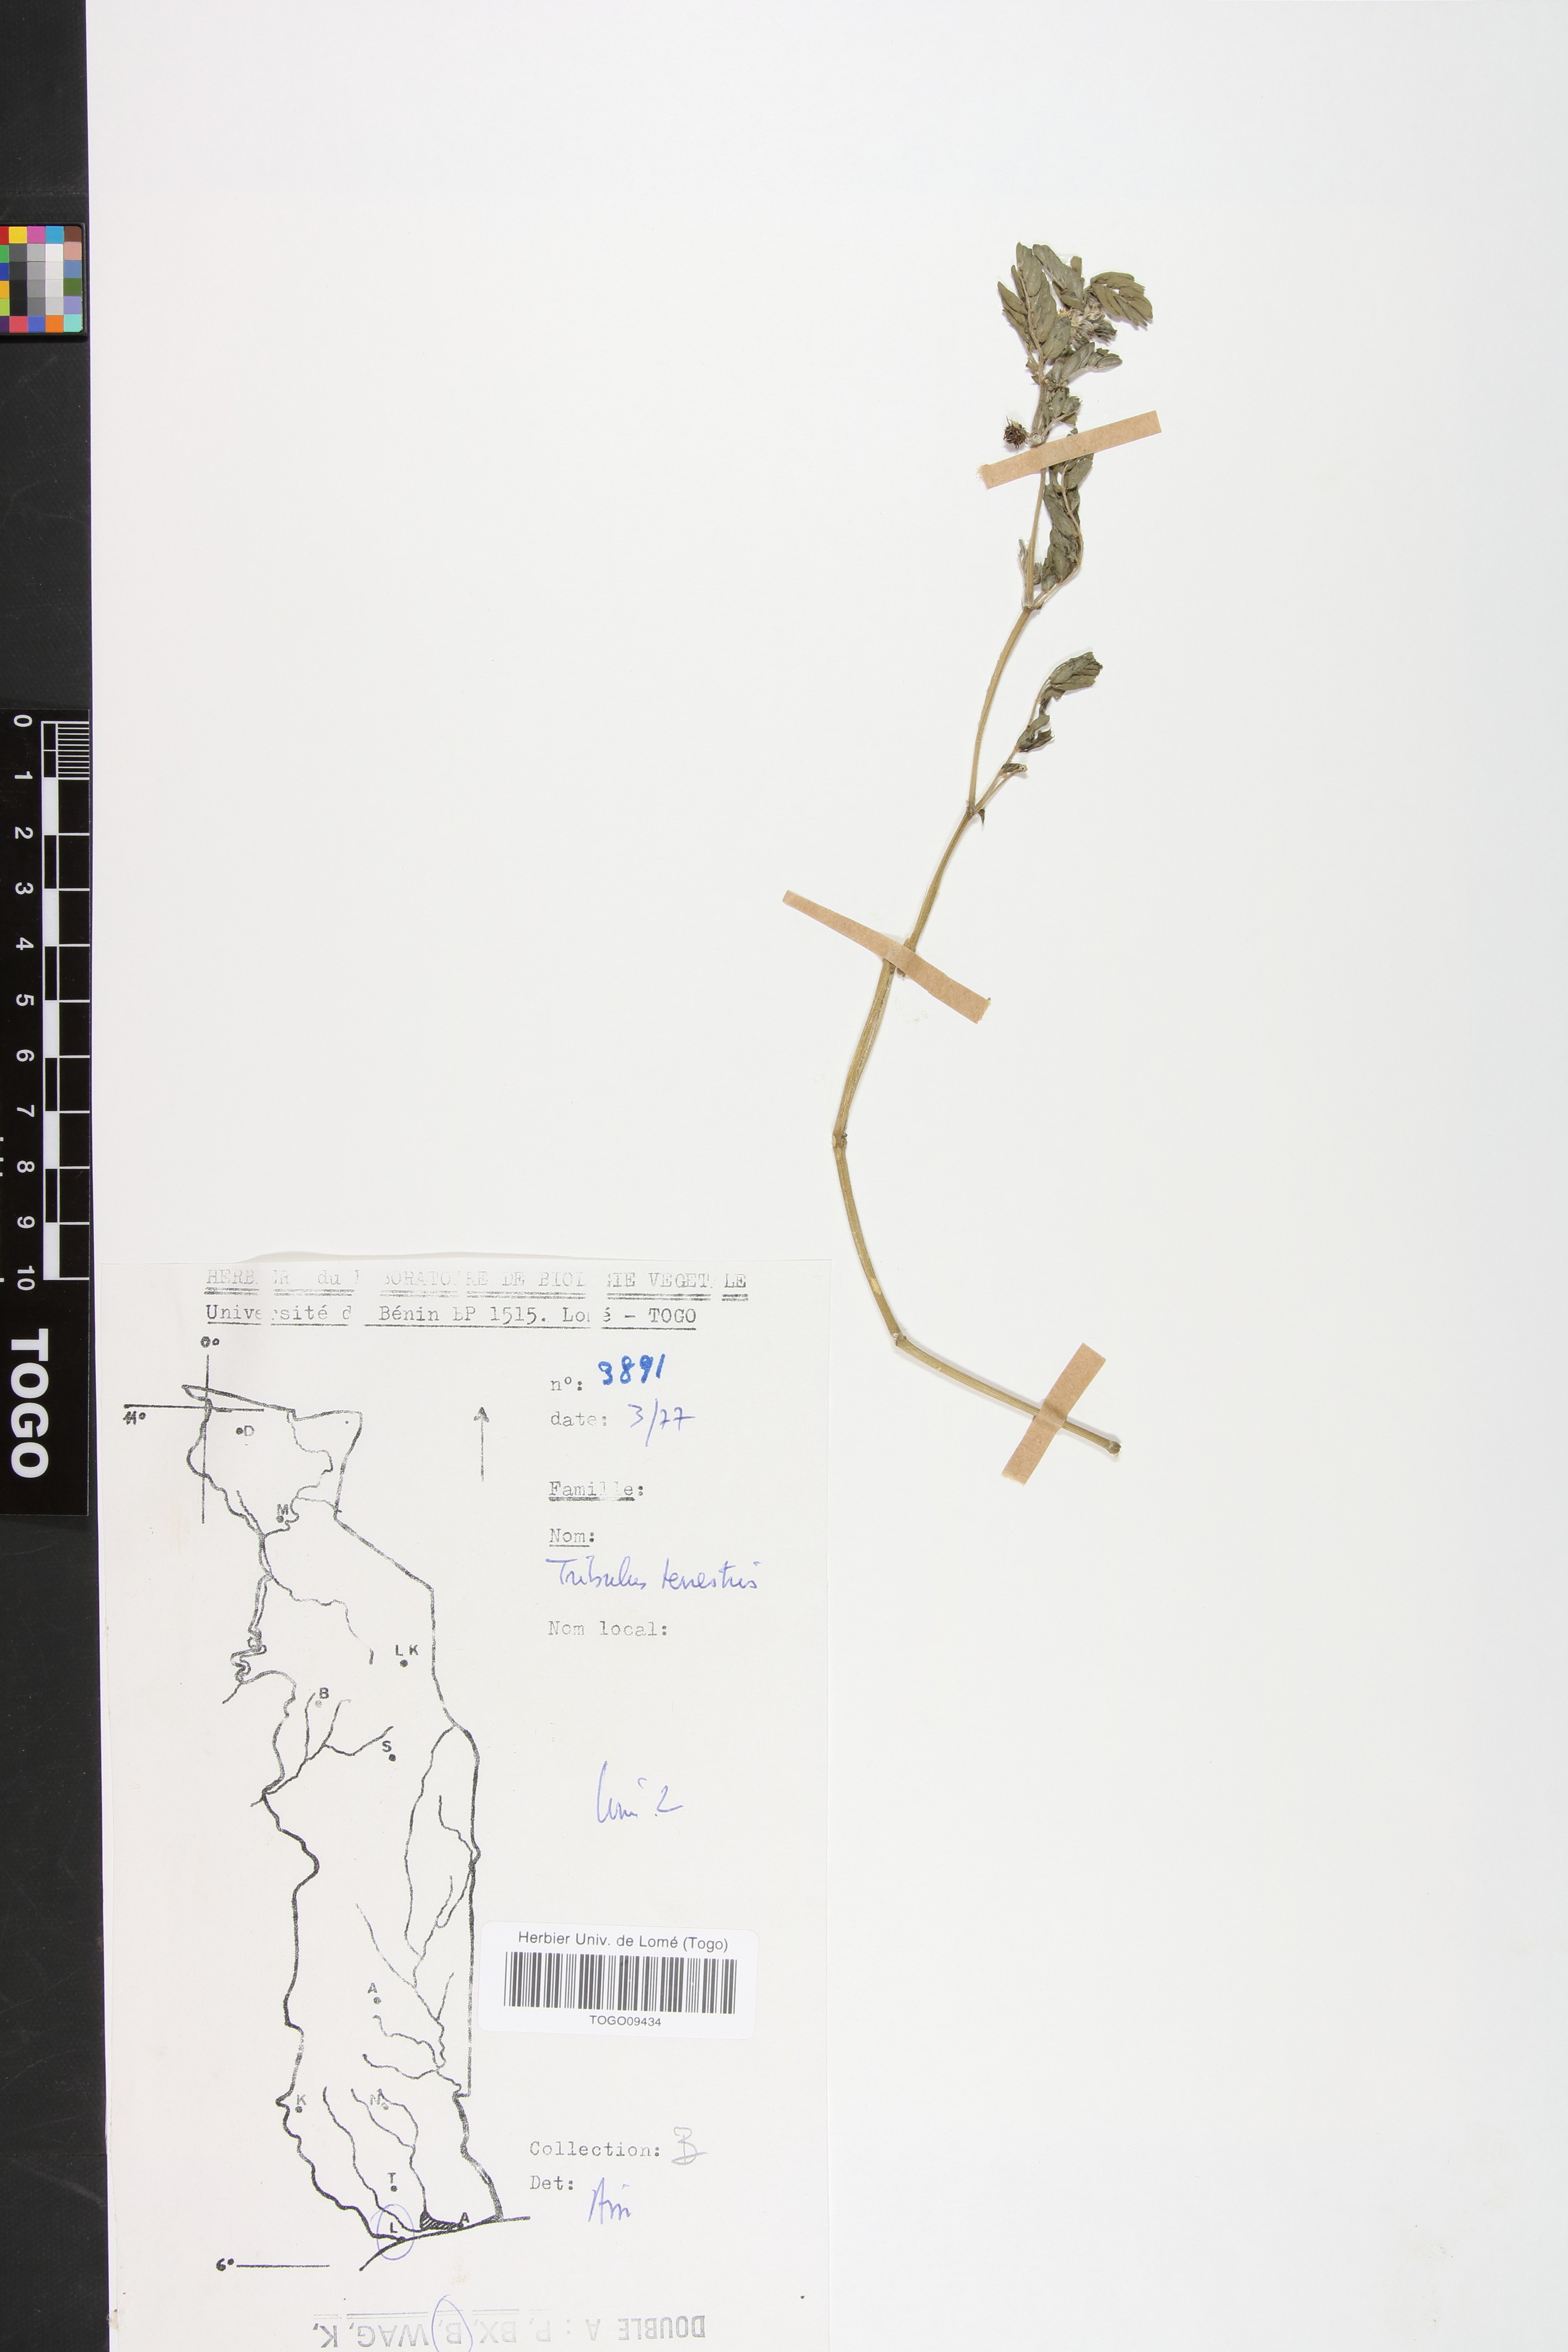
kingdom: Plantae
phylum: Tracheophyta
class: Magnoliopsida
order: Zygophyllales
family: Zygophyllaceae
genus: Tribulus
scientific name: Tribulus terrestris
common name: Puncturevine
